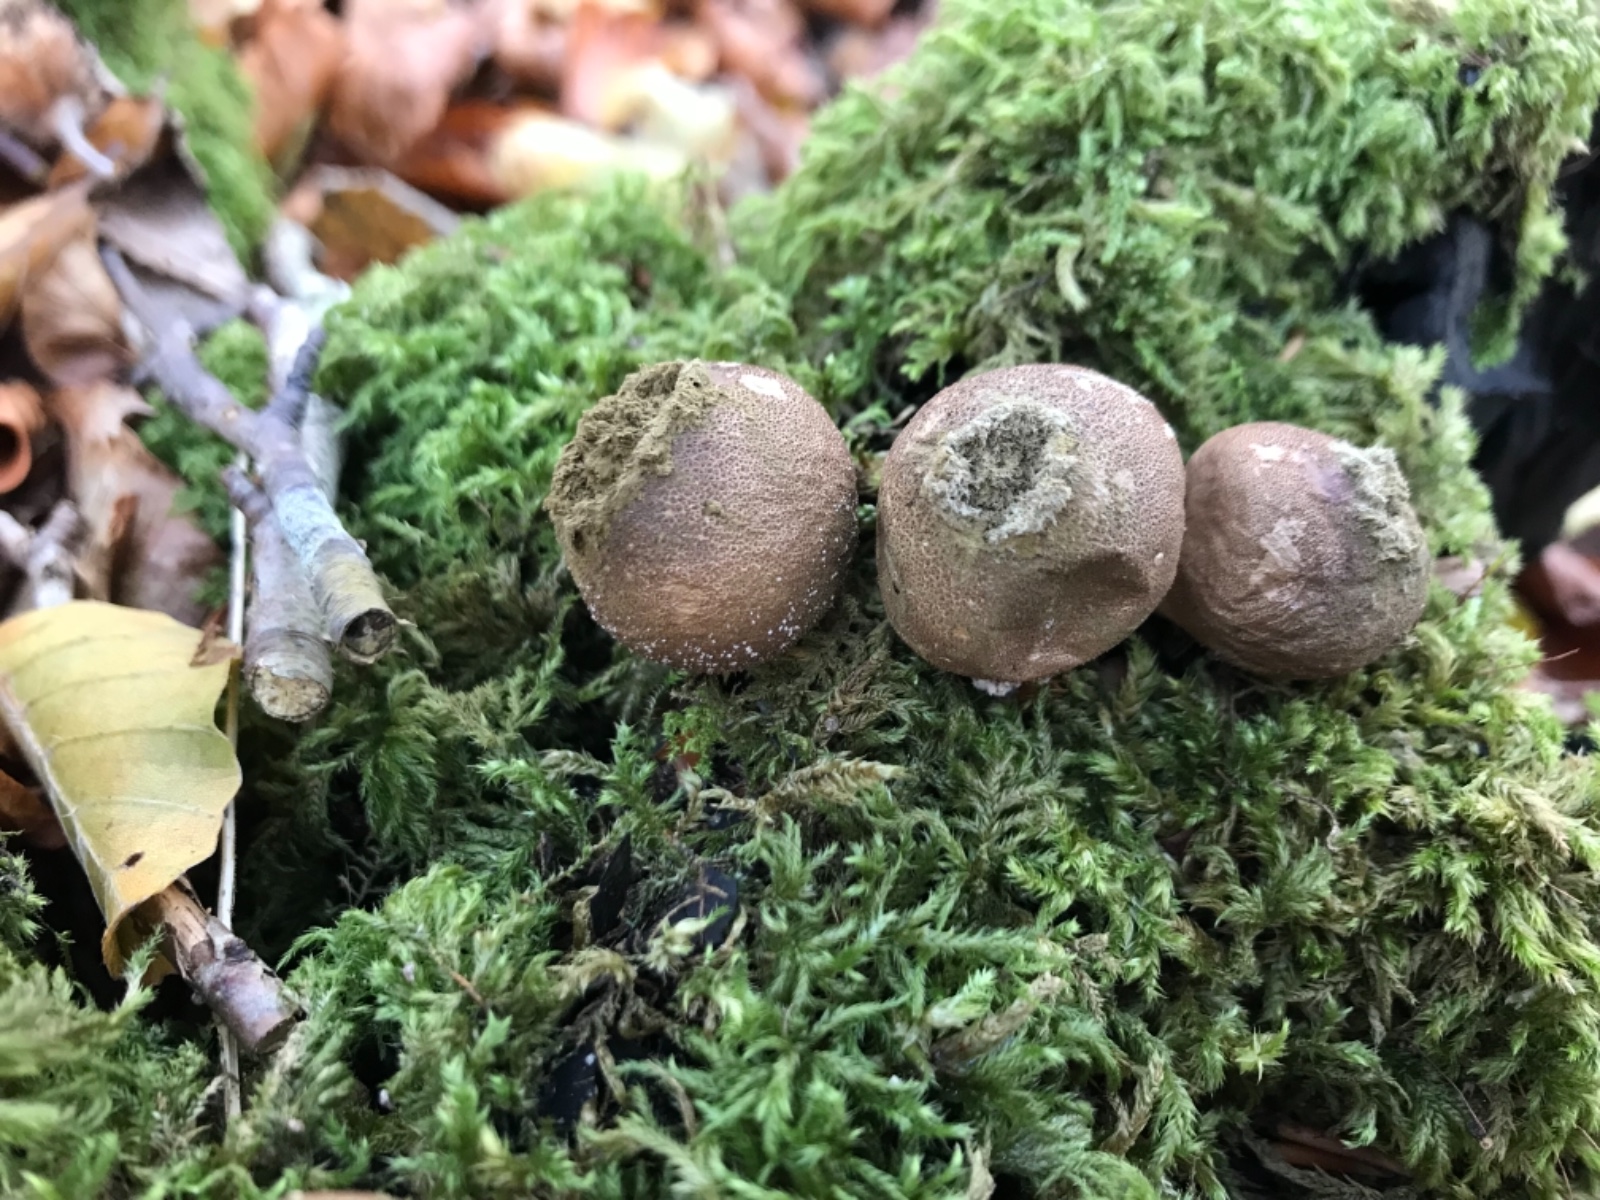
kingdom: Fungi
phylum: Basidiomycota
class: Agaricomycetes
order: Agaricales
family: Lycoperdaceae
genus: Apioperdon
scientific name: Apioperdon pyriforme
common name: pære-støvbold
